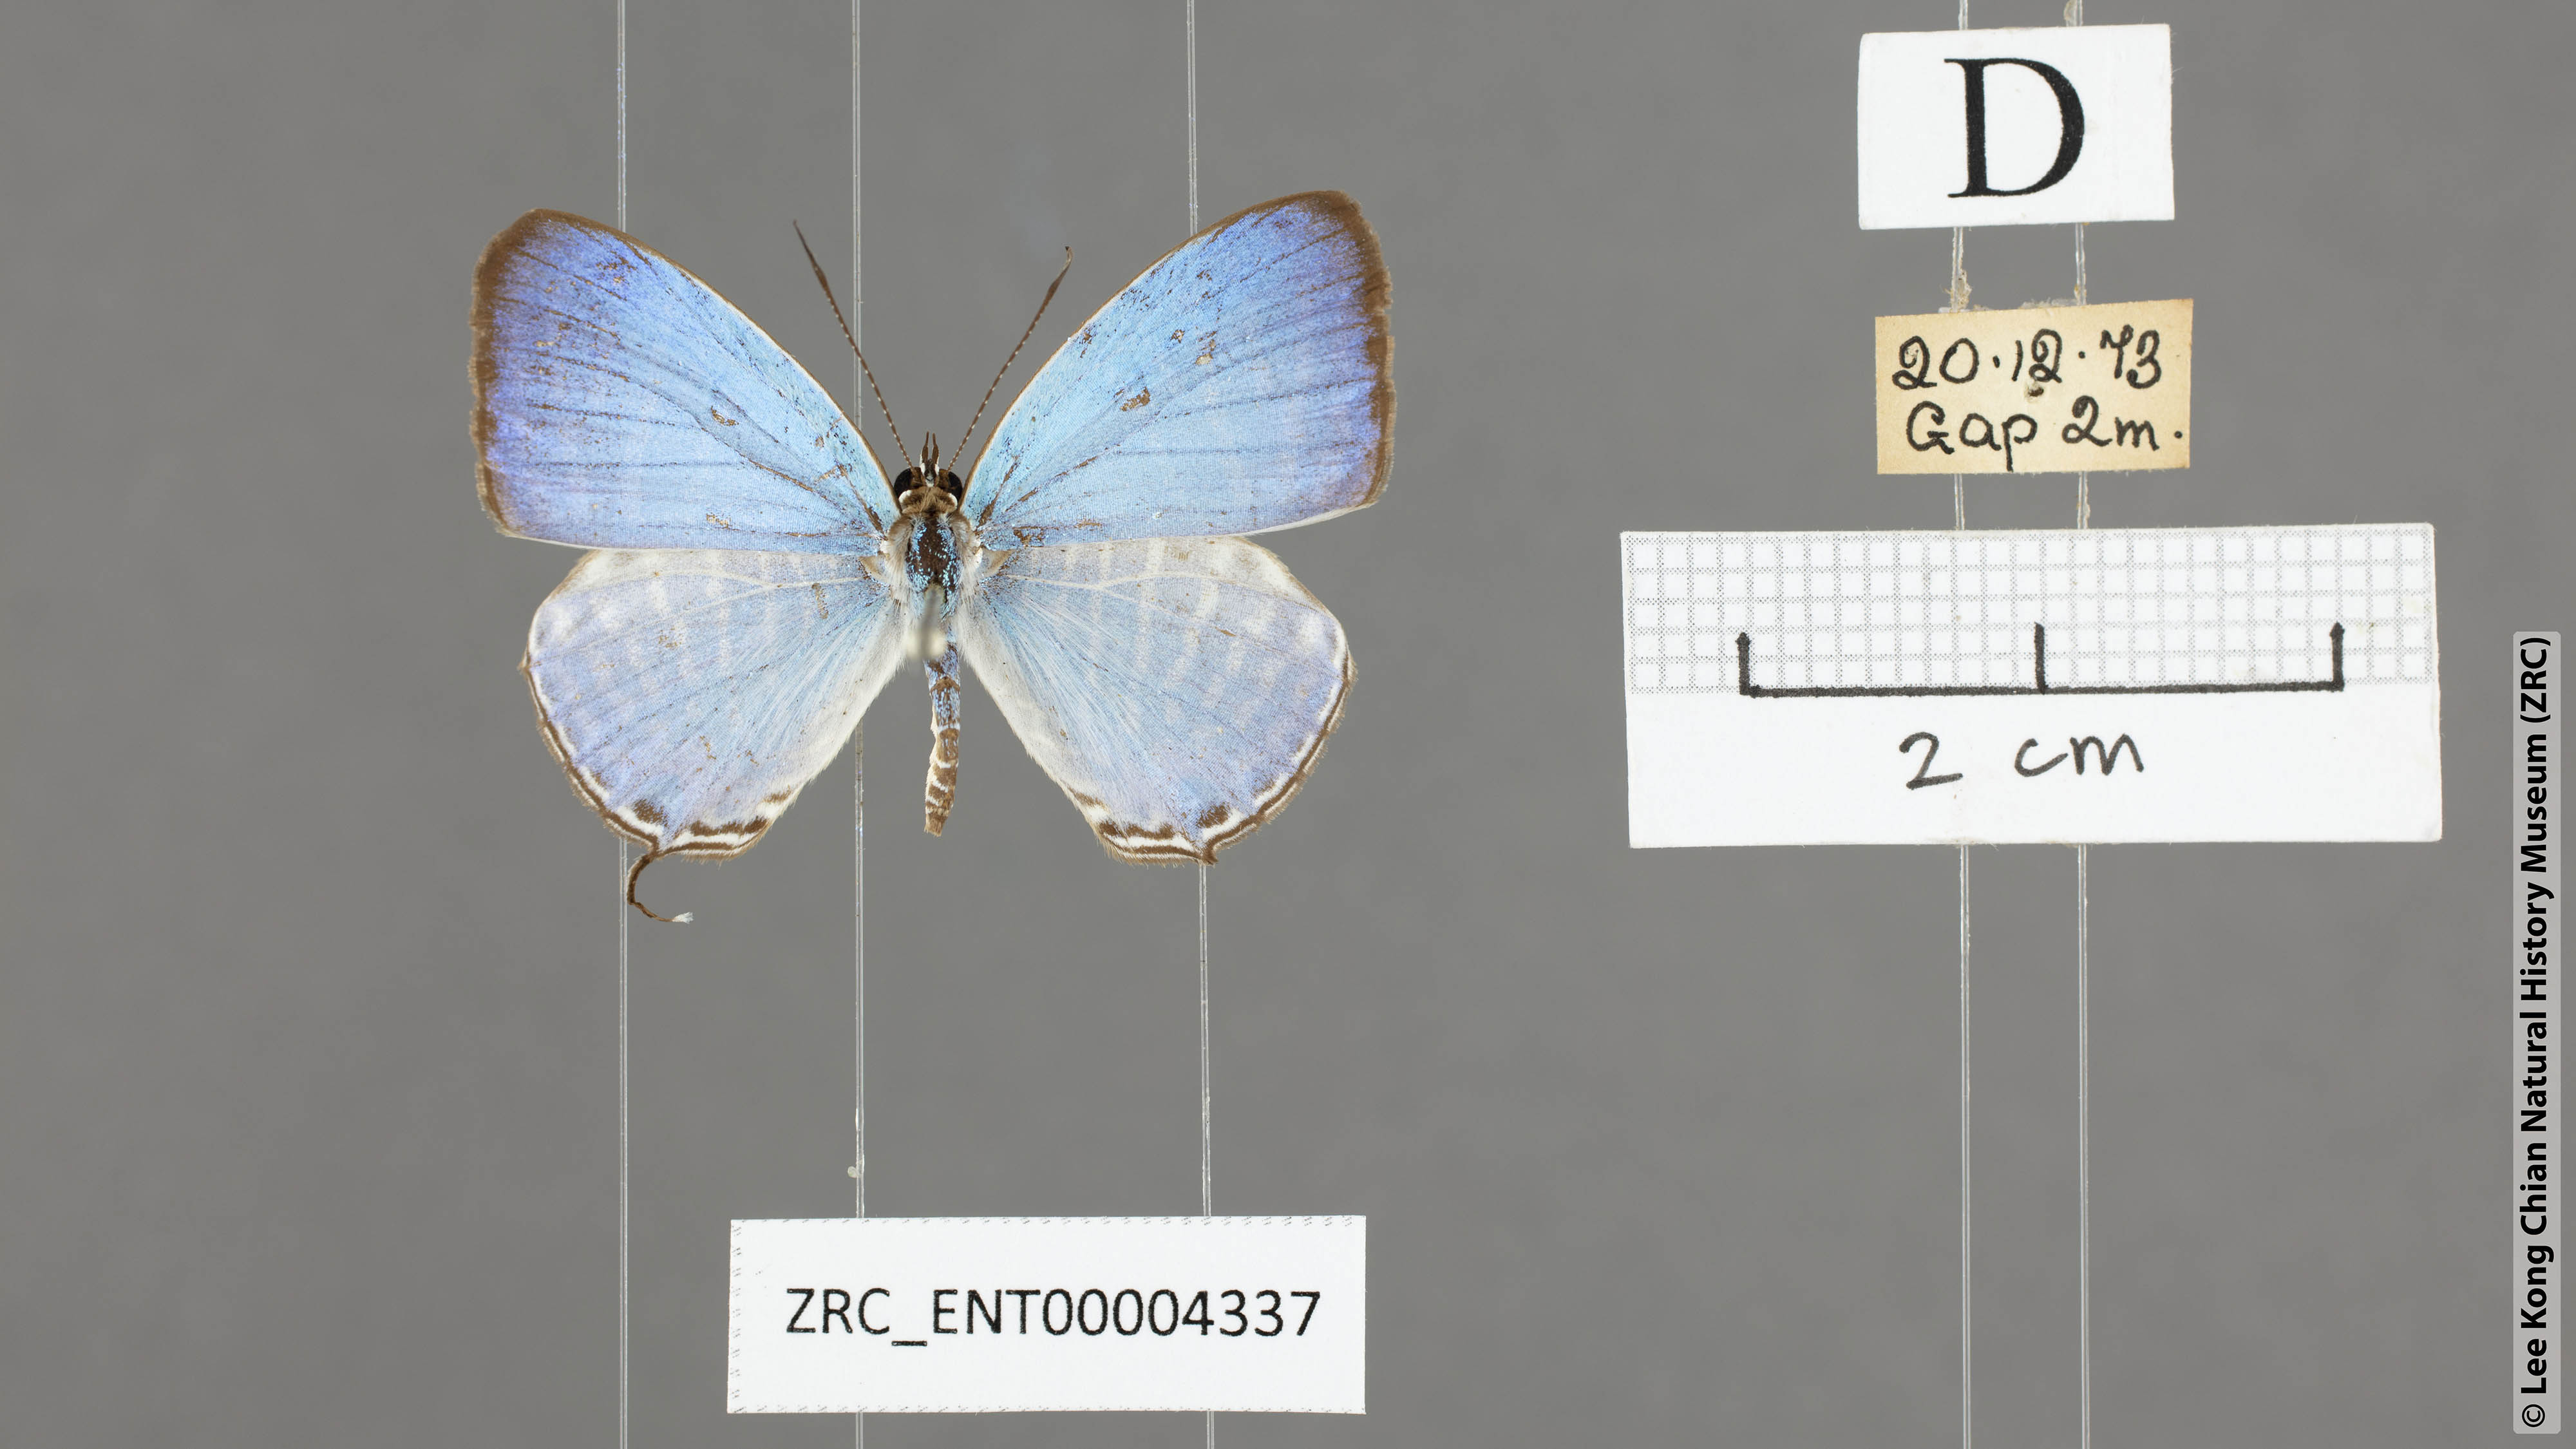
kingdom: Animalia
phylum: Arthropoda
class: Insecta
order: Lepidoptera
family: Lycaenidae
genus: Jamides
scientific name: Jamides malaccanus
